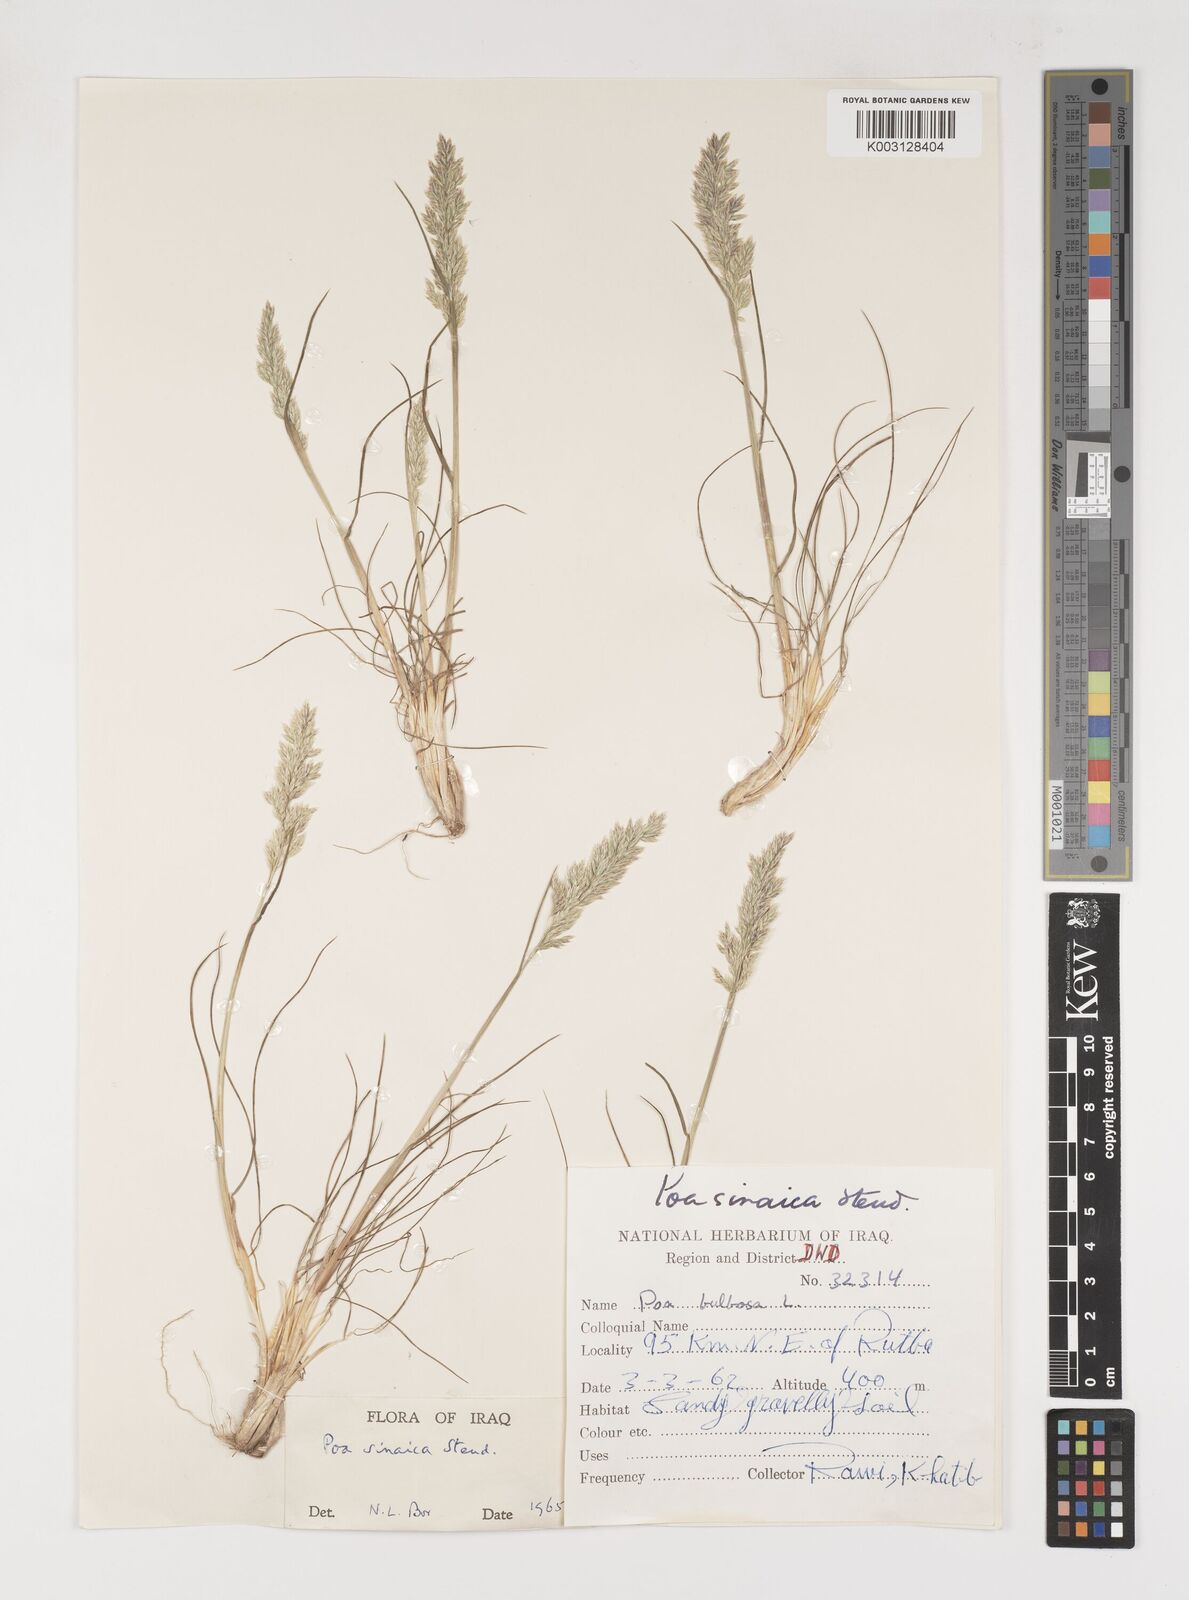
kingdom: Plantae
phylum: Tracheophyta
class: Liliopsida
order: Poales
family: Poaceae
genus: Poa
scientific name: Poa sinaica
